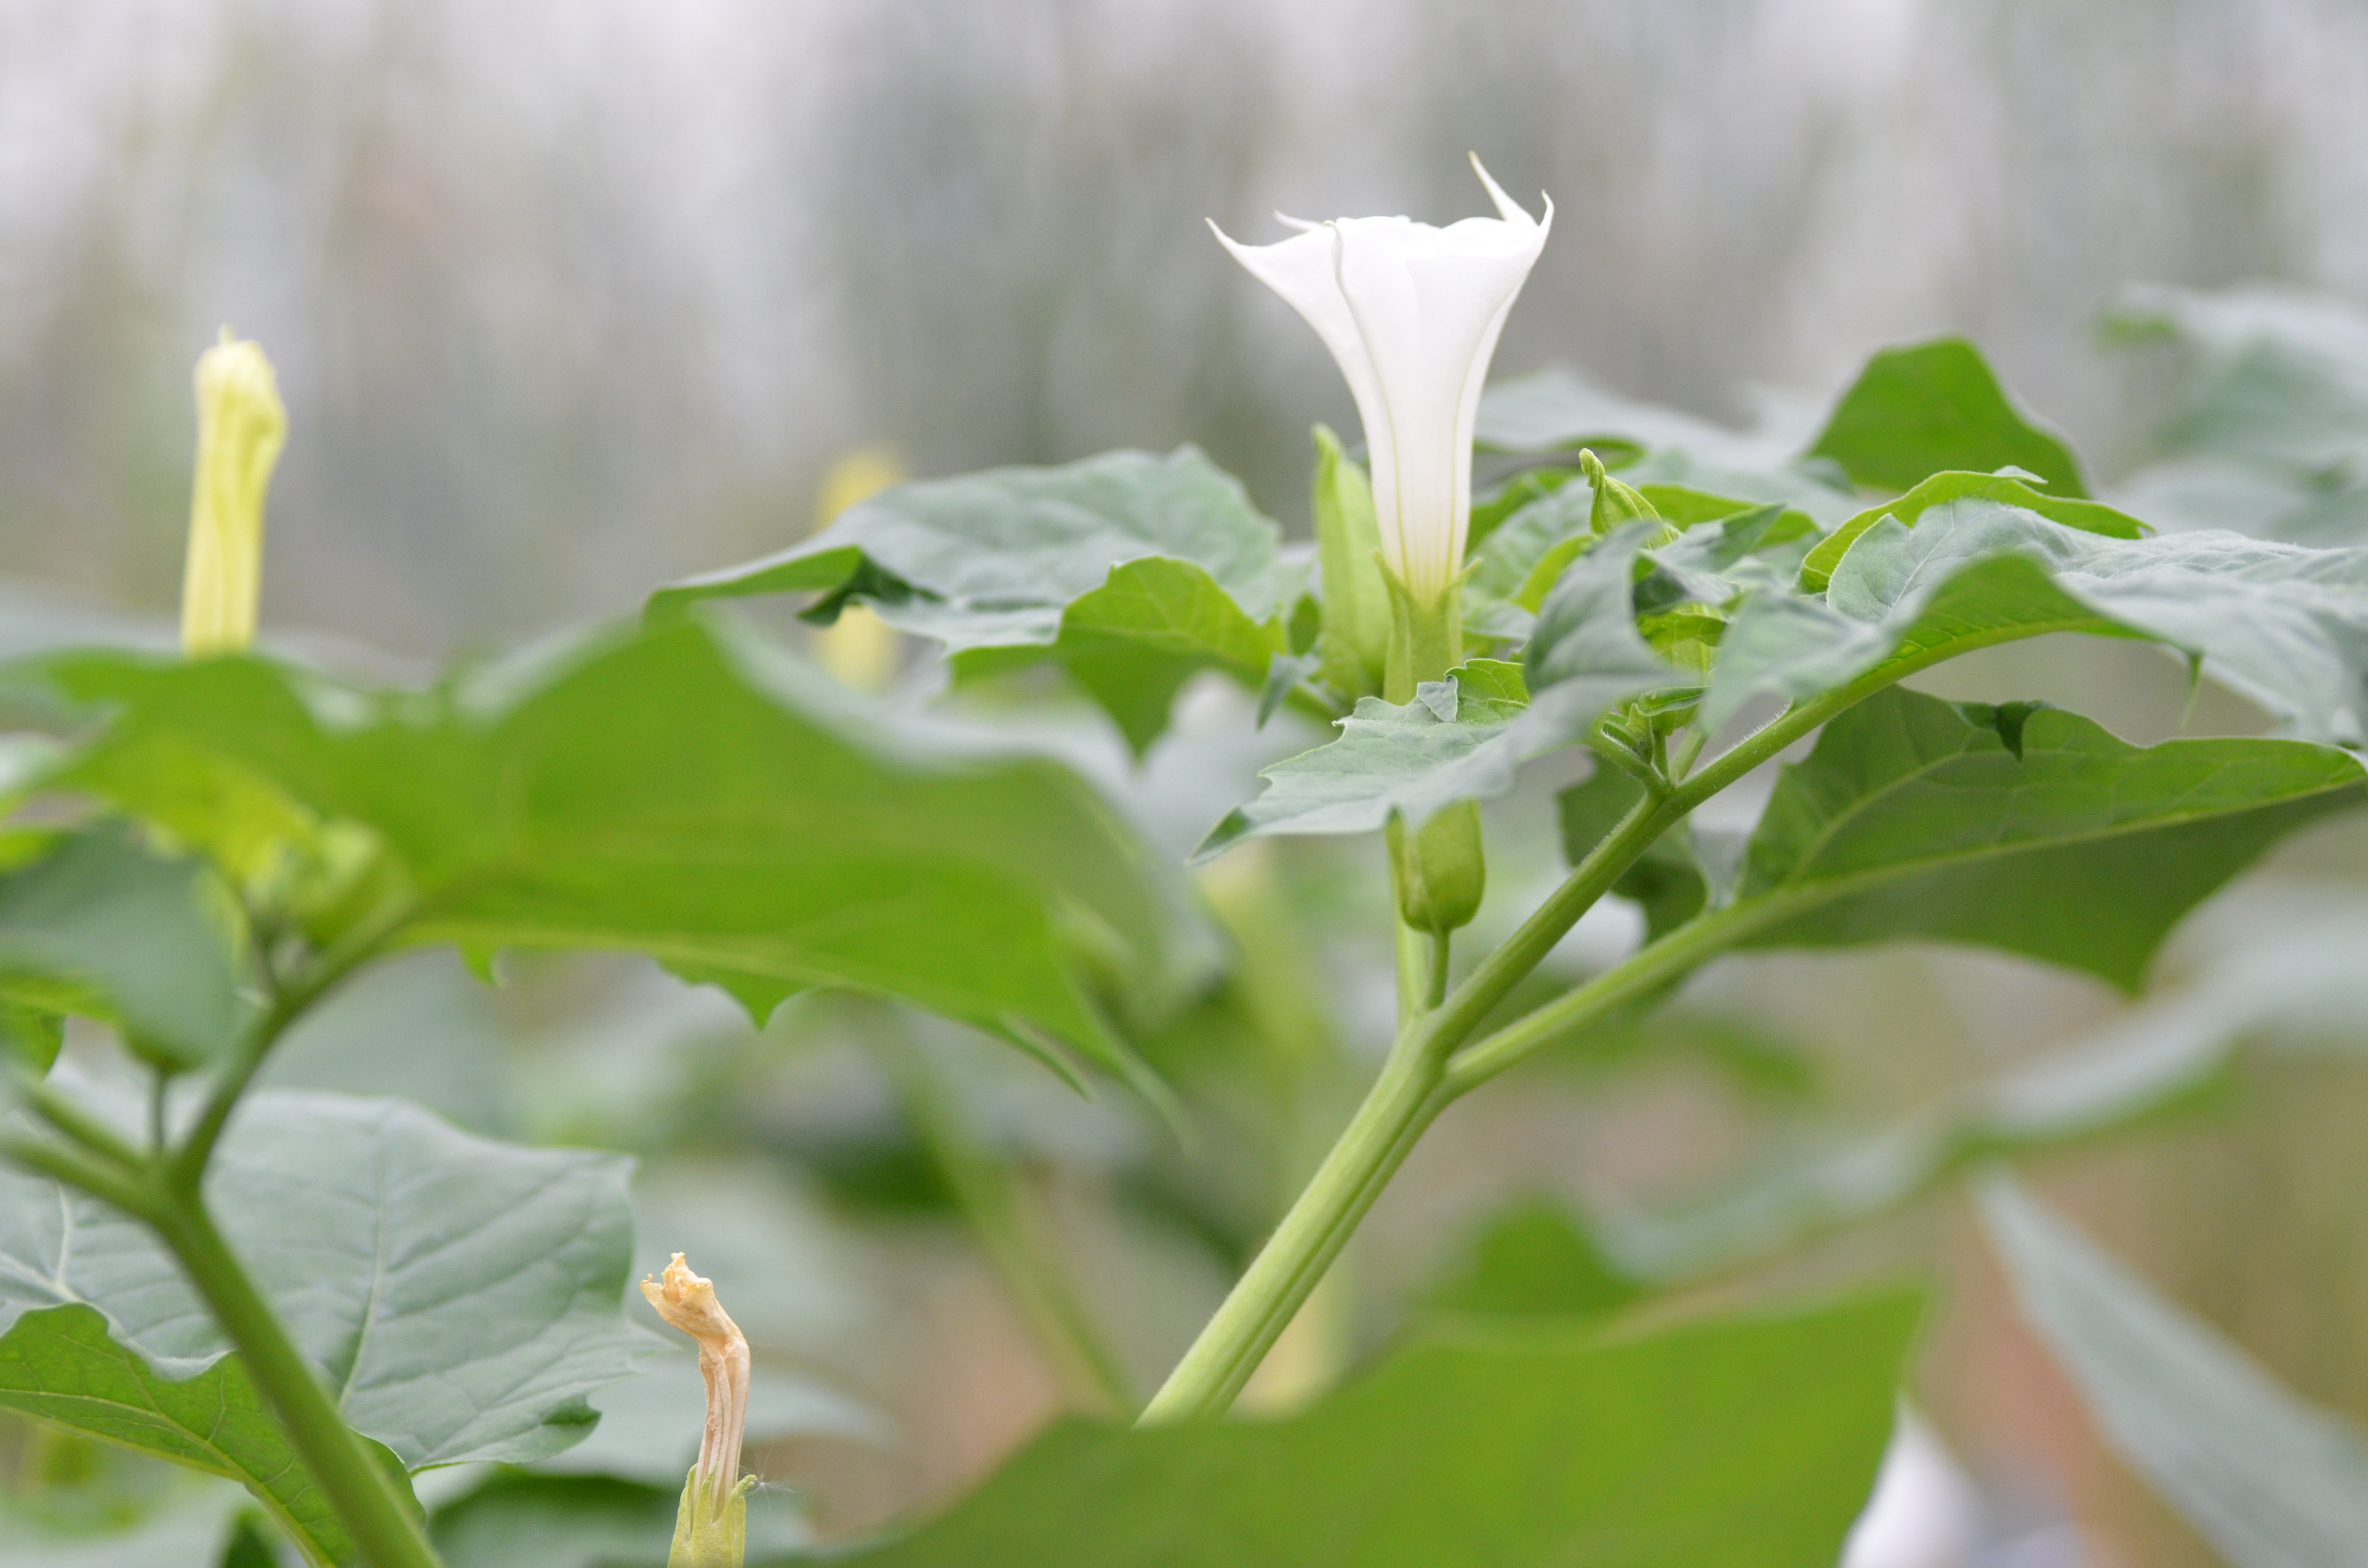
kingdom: Plantae
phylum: Tracheophyta
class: Magnoliopsida
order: Solanales
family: Solanaceae
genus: Datura
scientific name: Datura stramonium
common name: Thorn-apple
